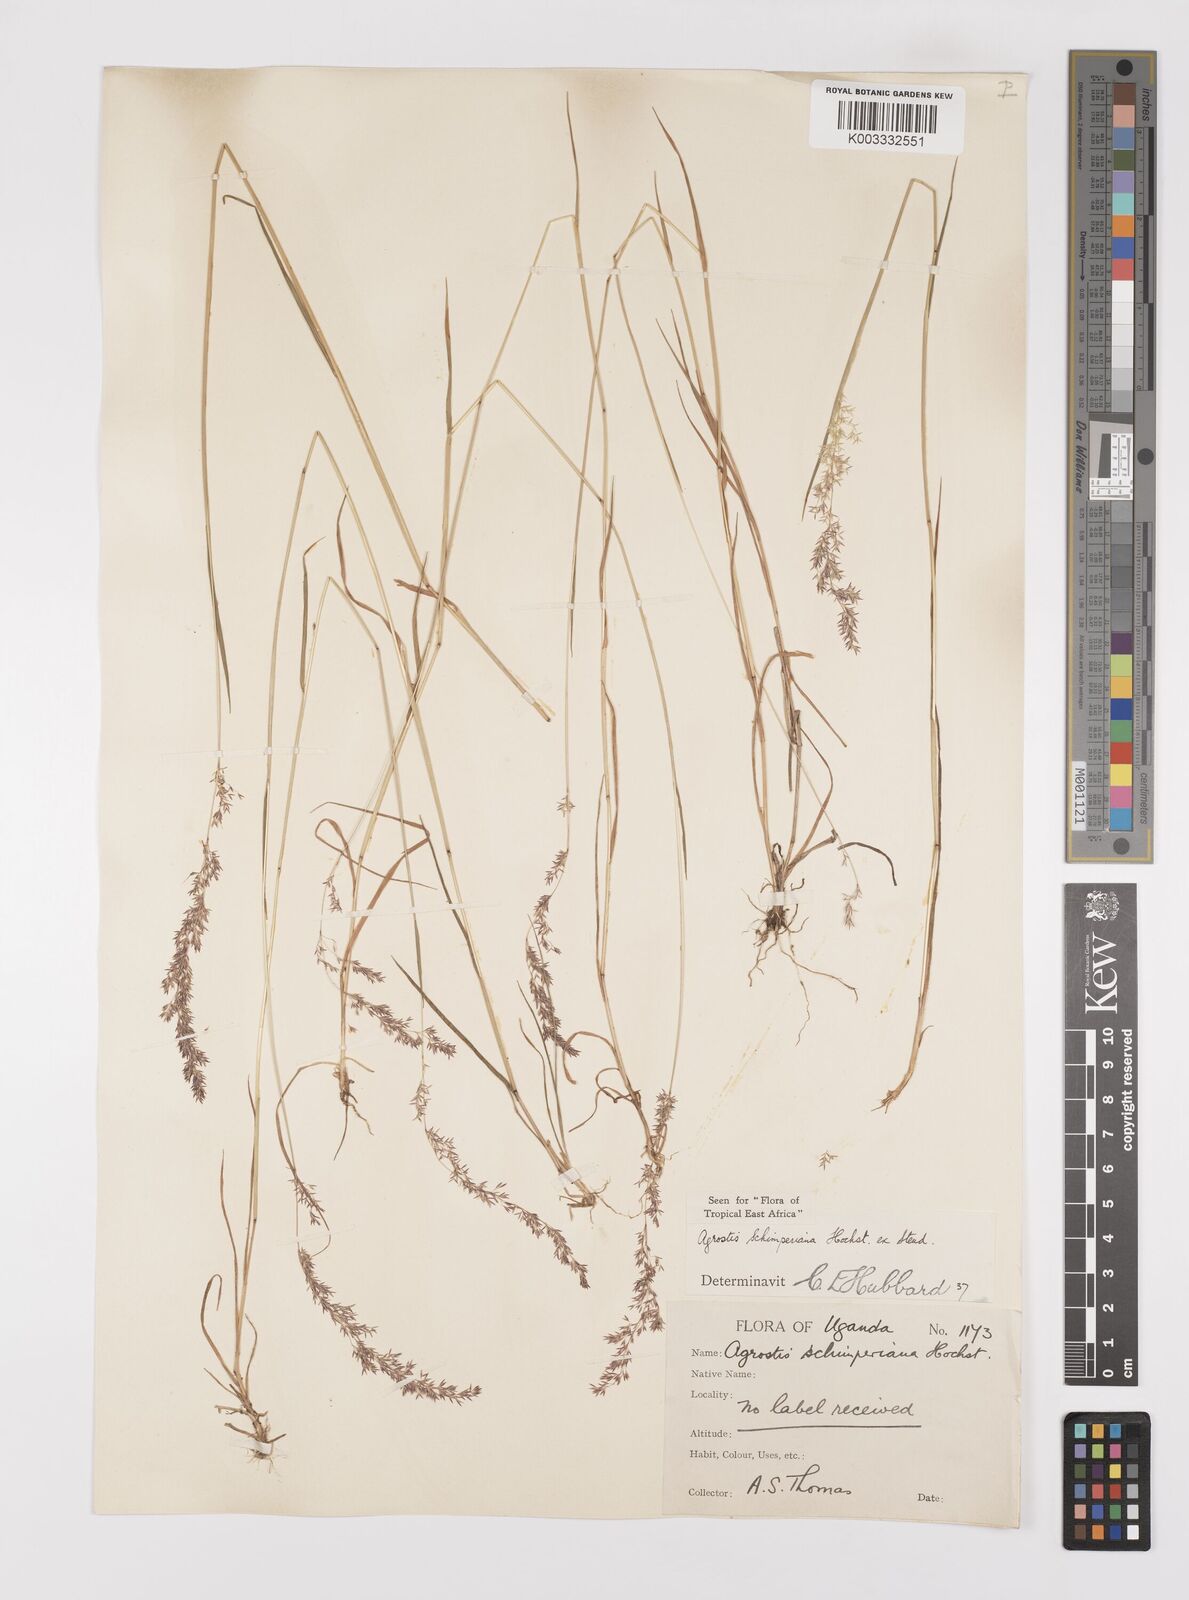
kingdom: Plantae
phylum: Tracheophyta
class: Liliopsida
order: Poales
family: Poaceae
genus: Polypogon
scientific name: Polypogon schimperianus
